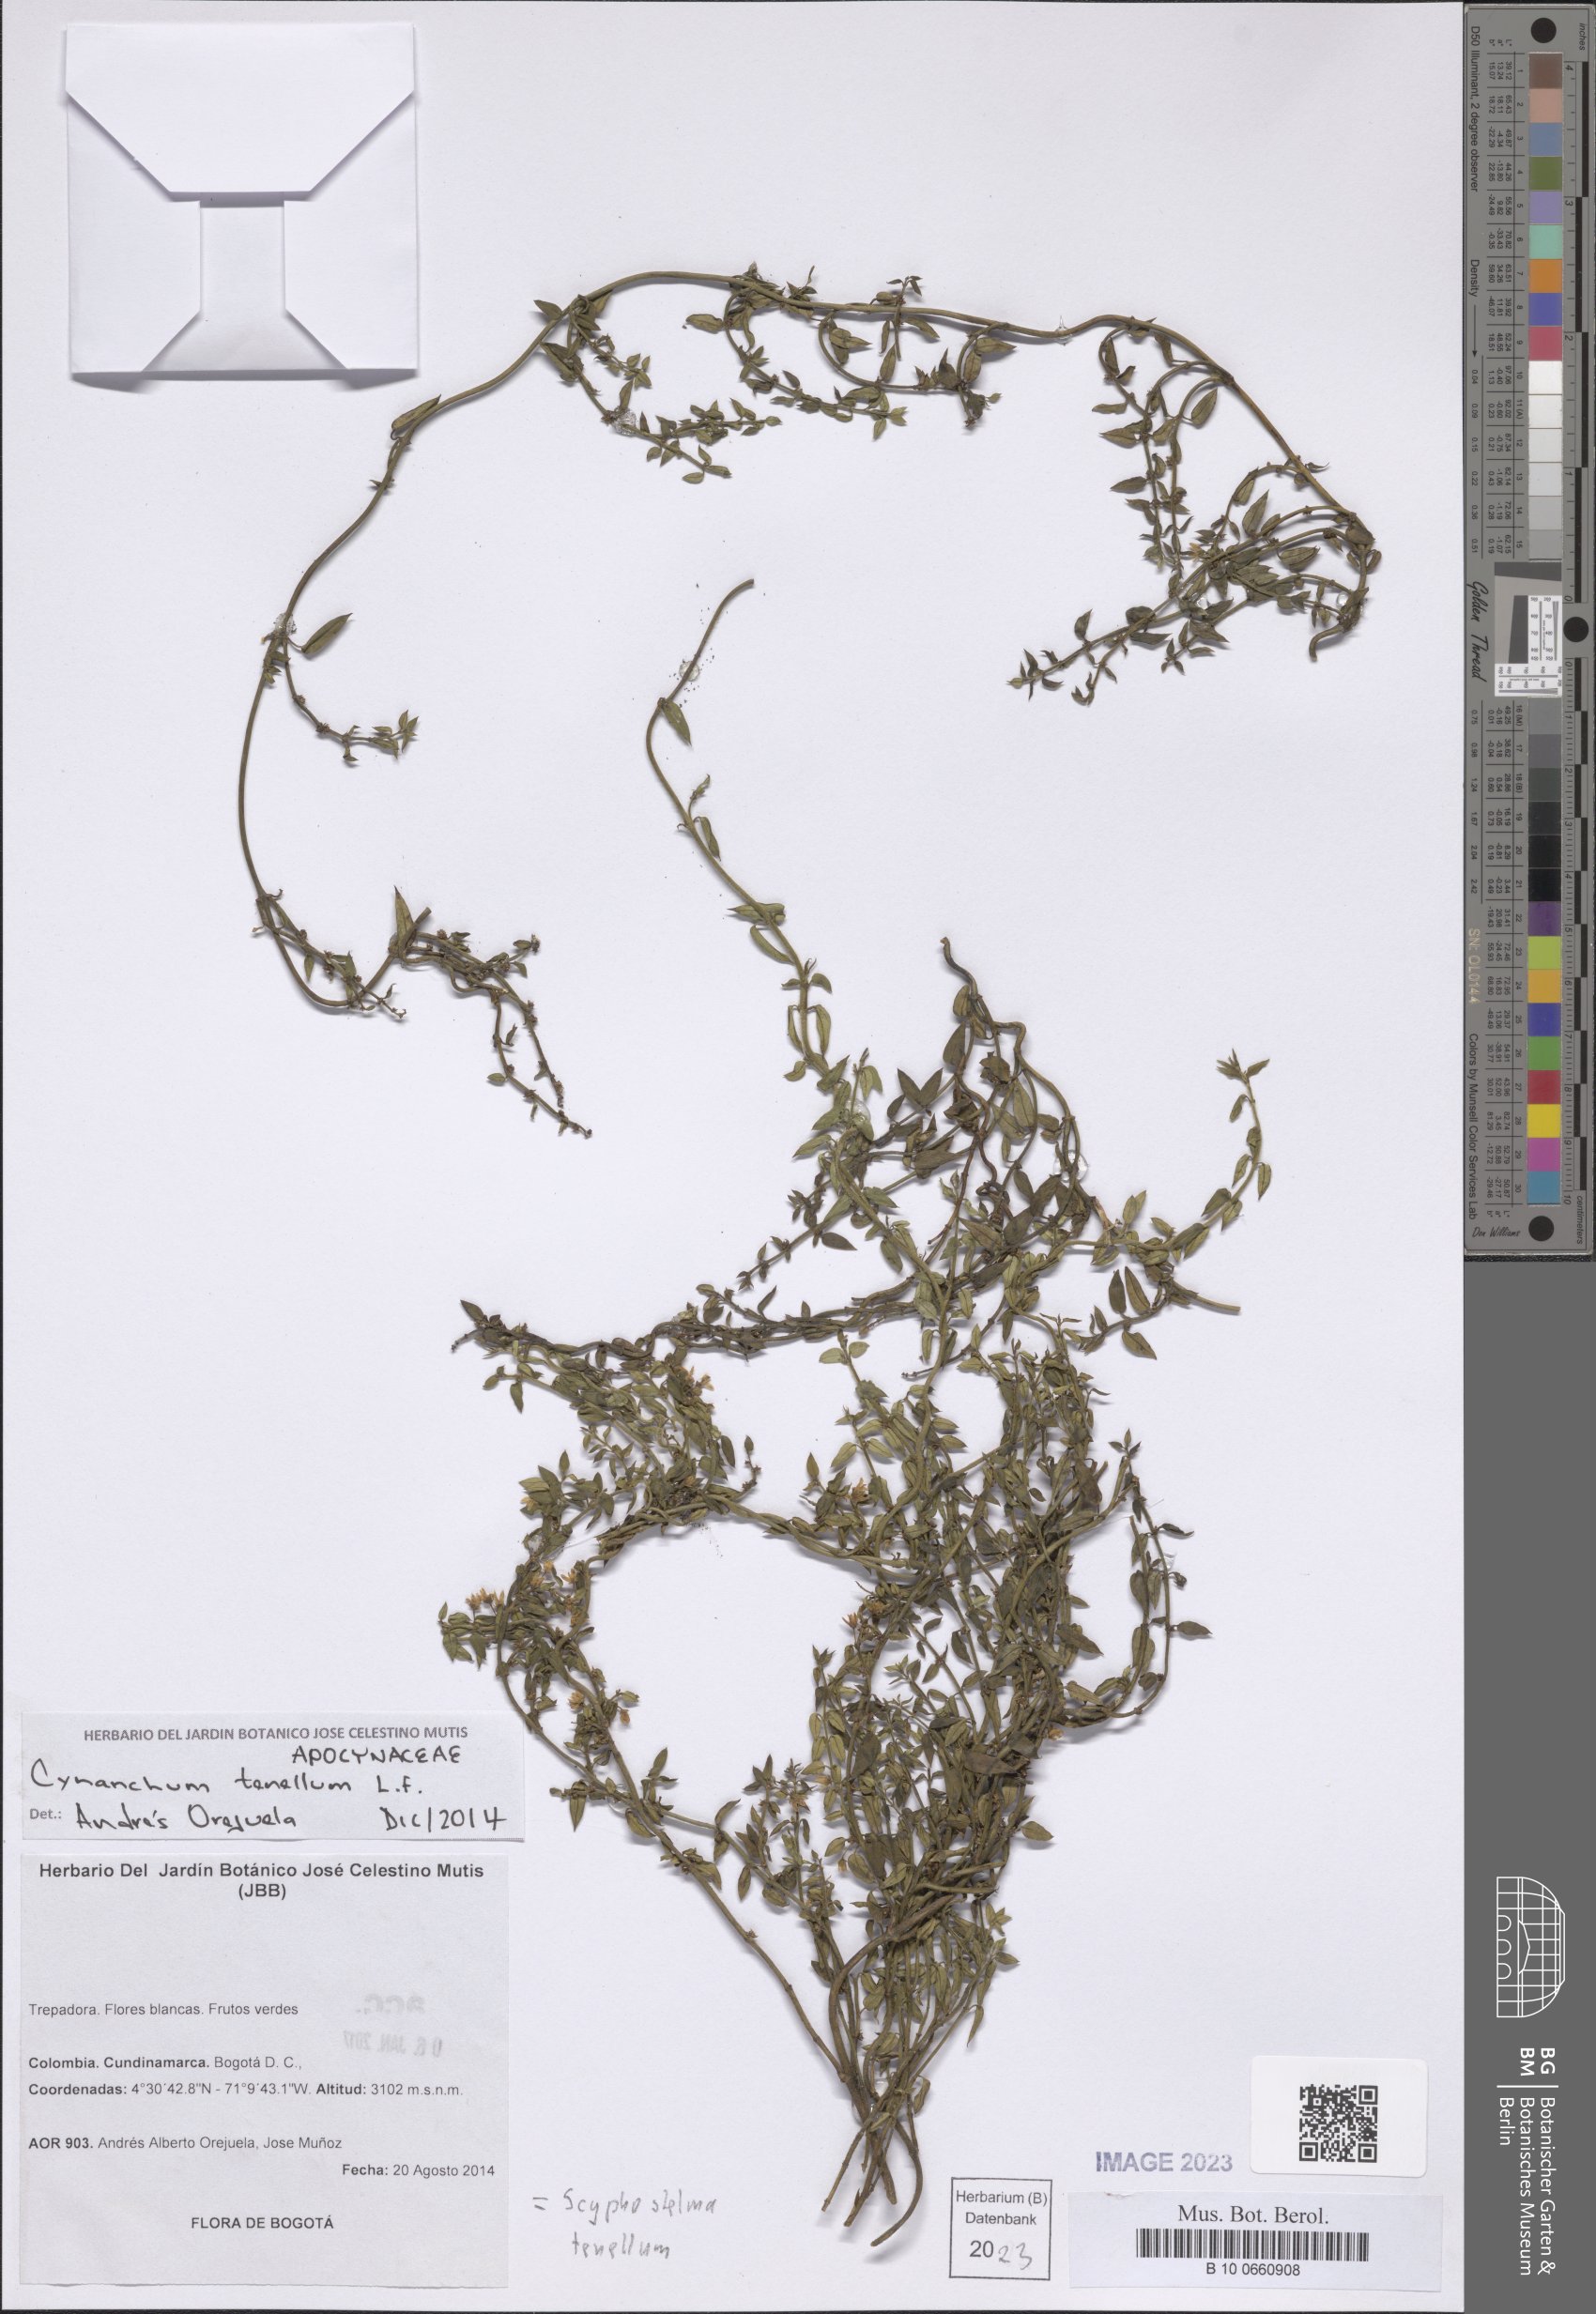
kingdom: Plantae
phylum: Tracheophyta
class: Magnoliopsida
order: Gentianales
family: Apocynaceae
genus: Scyphostelma
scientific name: Scyphostelma tenellum
